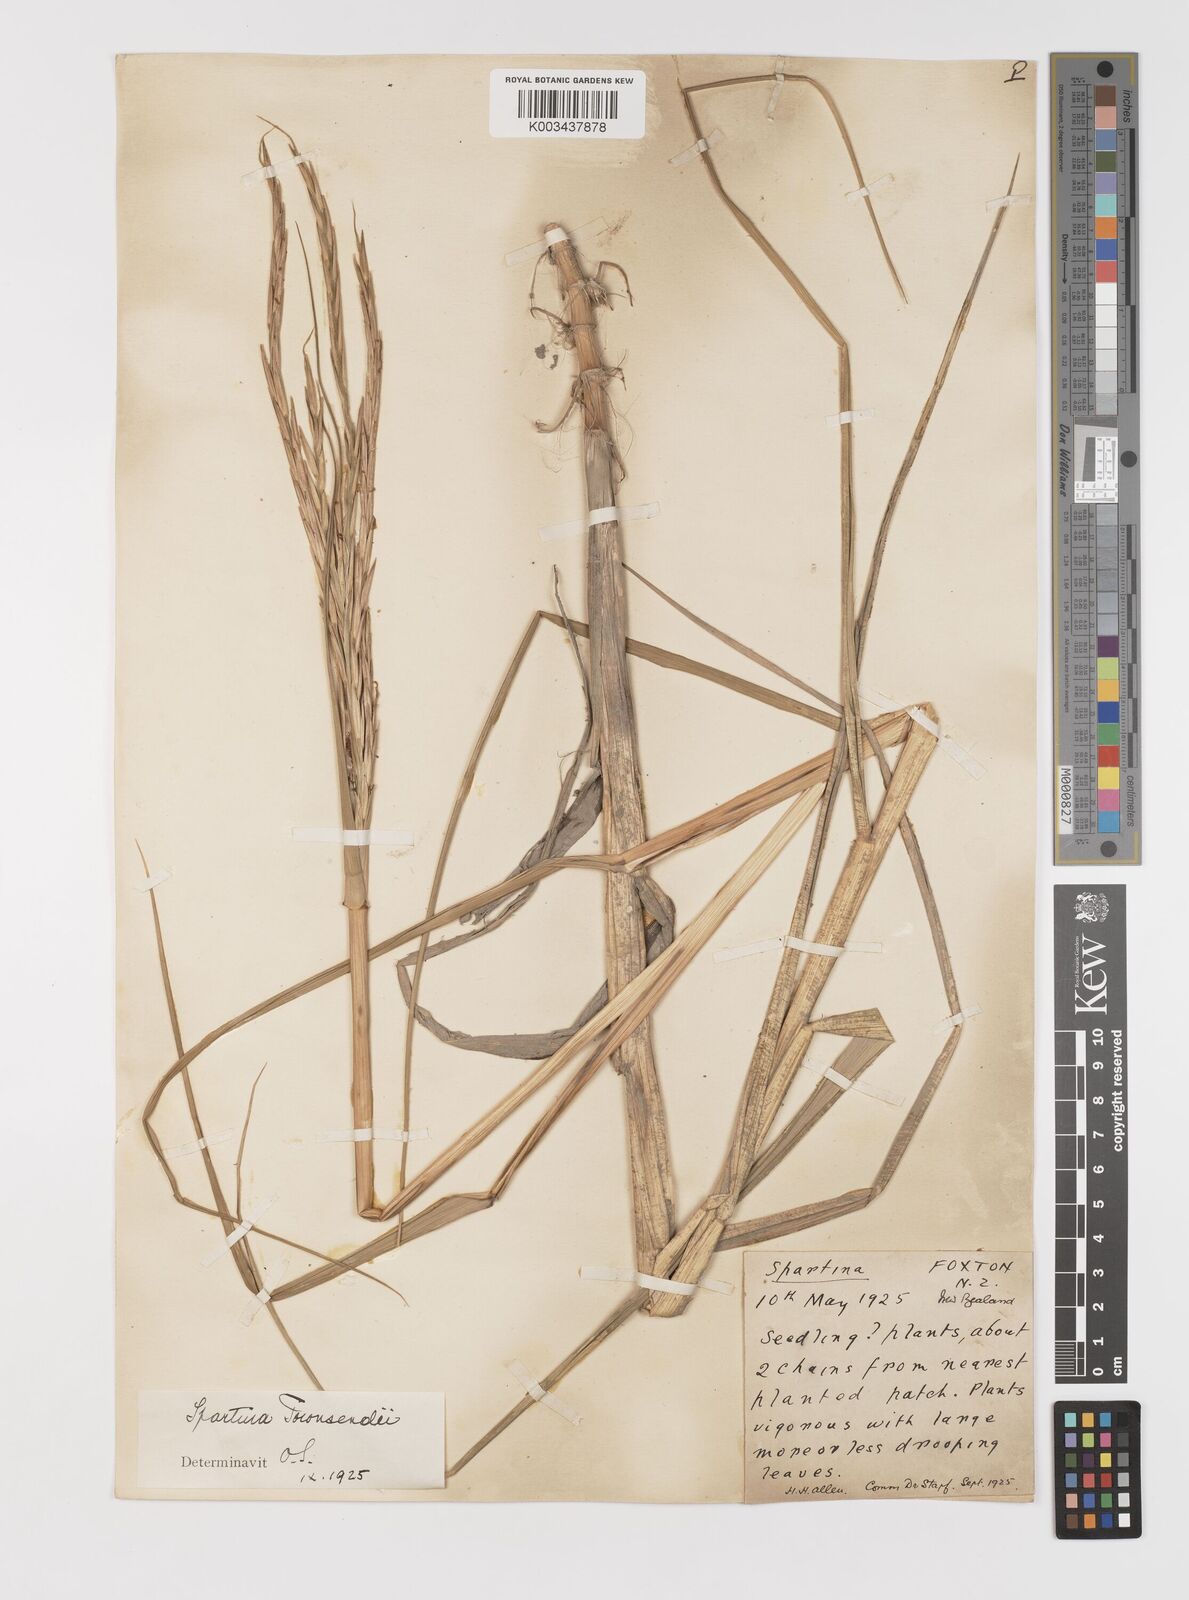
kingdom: Plantae
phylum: Tracheophyta
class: Liliopsida
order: Poales
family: Poaceae
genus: Sporobolus
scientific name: Sporobolus townsendii
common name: Townsend's cordgrass
